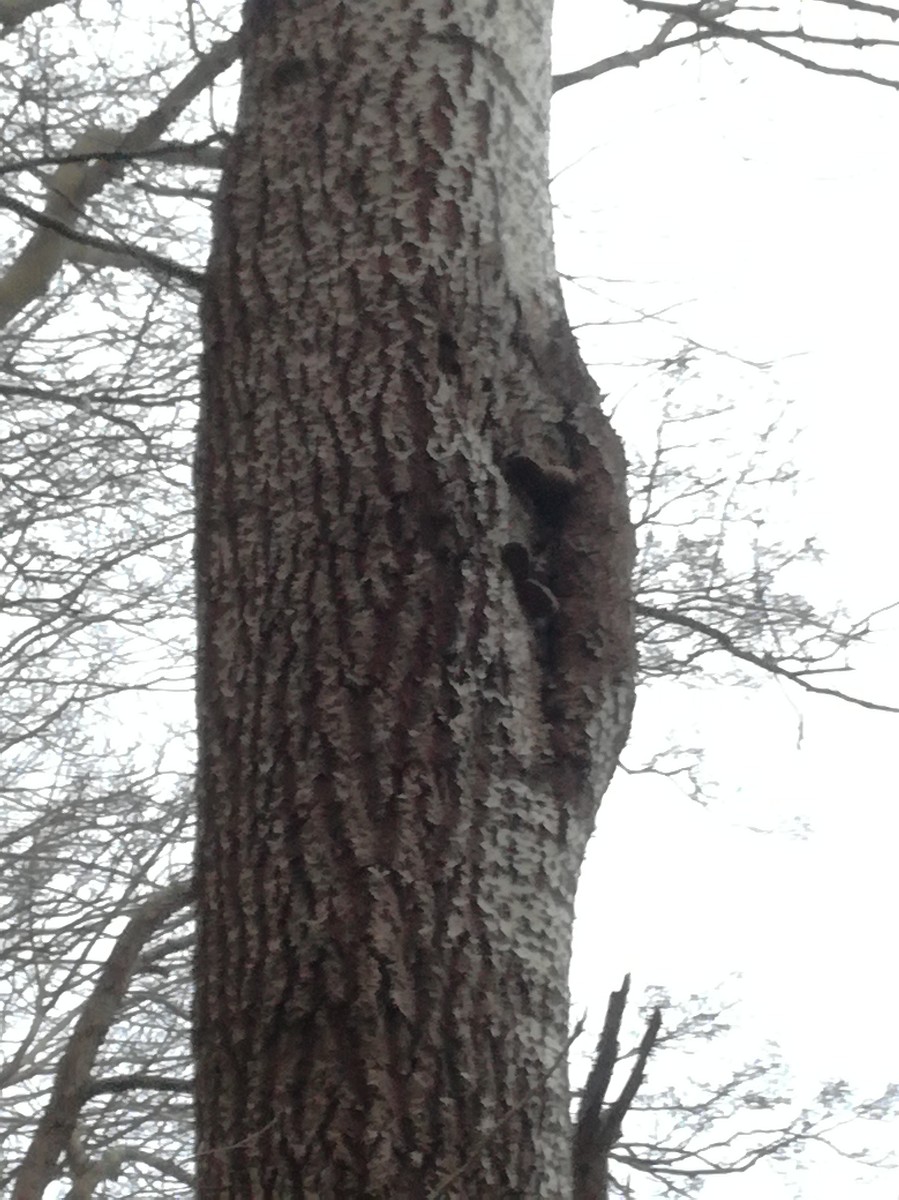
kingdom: Fungi
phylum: Basidiomycota
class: Agaricomycetes
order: Hymenochaetales
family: Hymenochaetaceae
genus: Phellinus
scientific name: Phellinus populicola
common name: poppel-ildporesvamp
